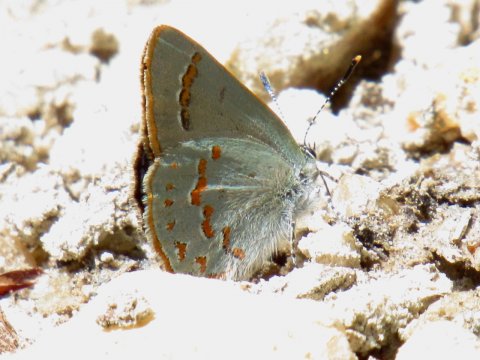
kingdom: Animalia
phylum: Arthropoda
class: Insecta
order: Lepidoptera
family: Lycaenidae
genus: Erora
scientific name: Erora laeta
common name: Early Hairstreak
